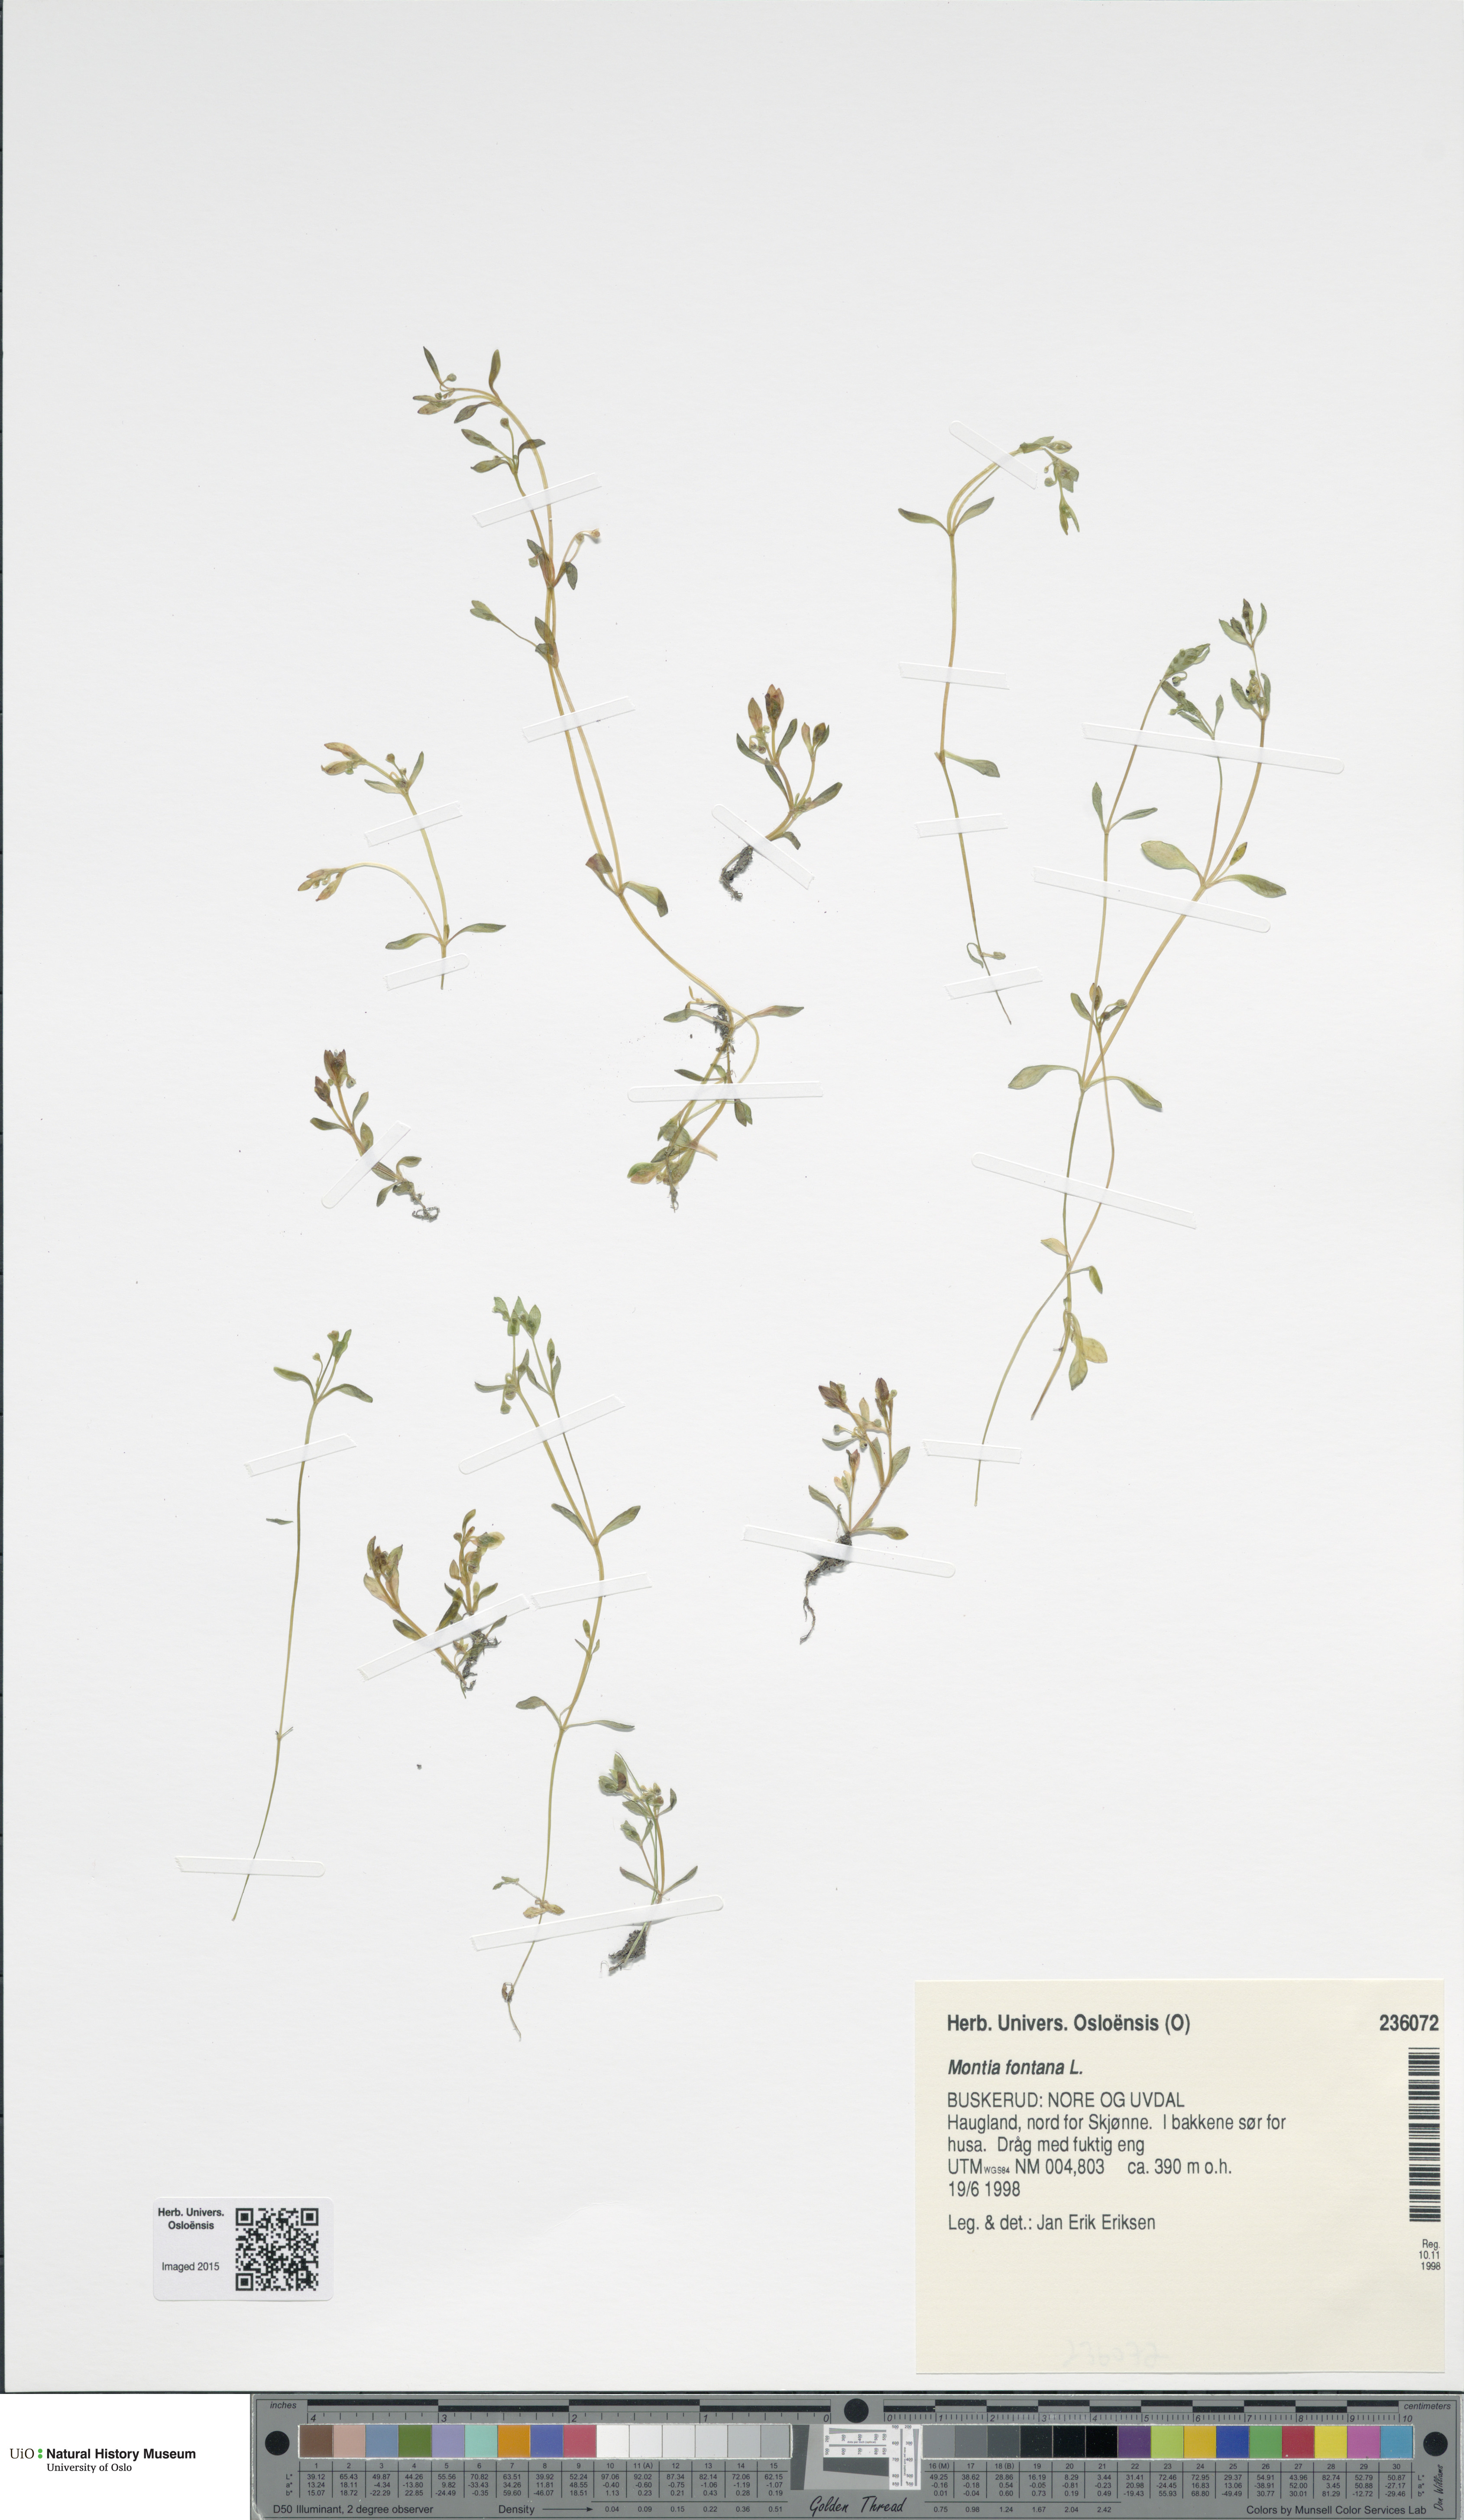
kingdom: Plantae
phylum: Tracheophyta
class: Magnoliopsida
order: Caryophyllales
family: Montiaceae
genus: Montia
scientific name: Montia fontana
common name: Blinks
